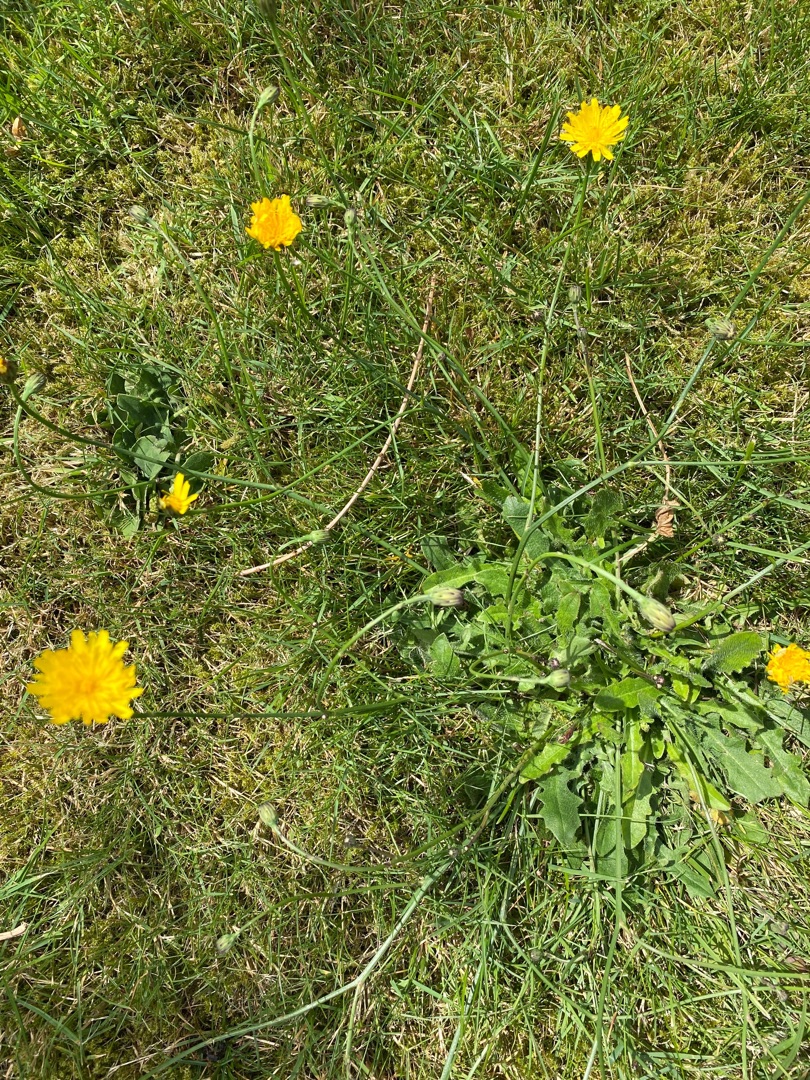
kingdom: Plantae
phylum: Tracheophyta
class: Magnoliopsida
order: Asterales
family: Asteraceae
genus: Hypochaeris
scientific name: Hypochaeris radicata
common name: Almindelig kongepen
